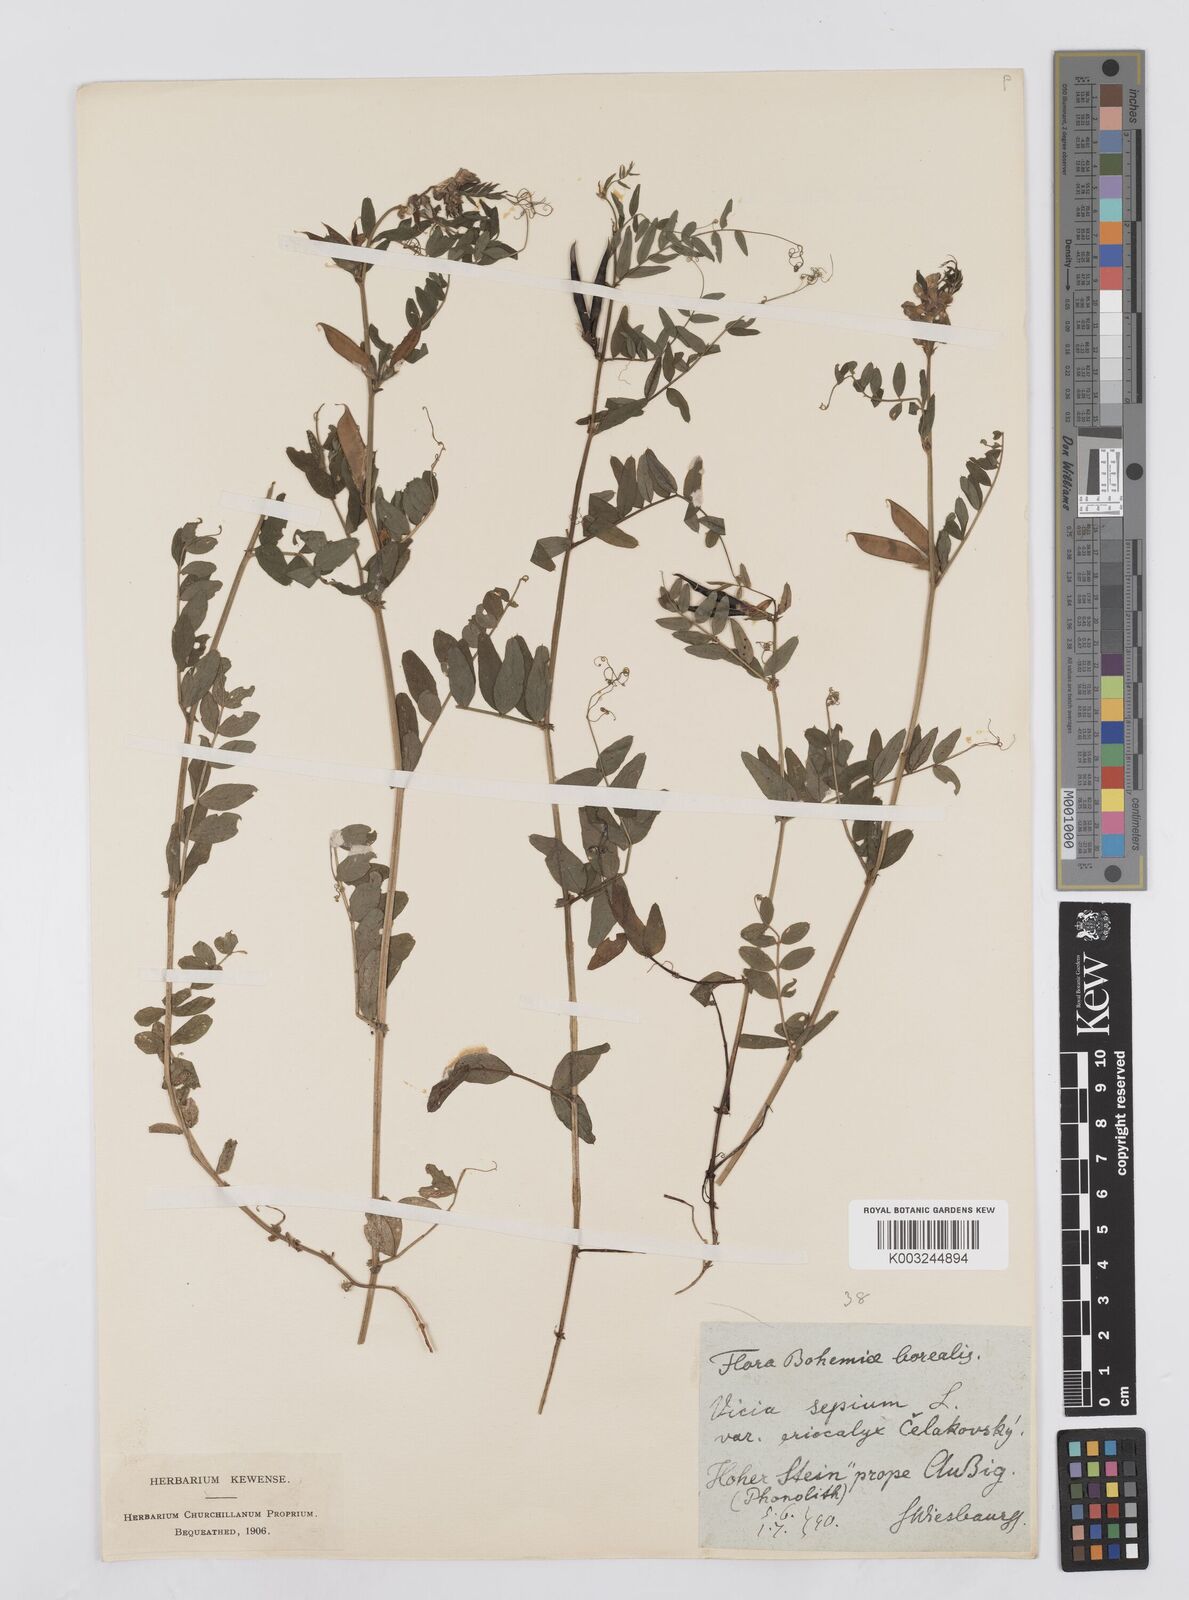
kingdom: Plantae
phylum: Tracheophyta
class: Magnoliopsida
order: Fabales
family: Fabaceae
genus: Vicia
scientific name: Vicia sepium
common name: Bush vetch
